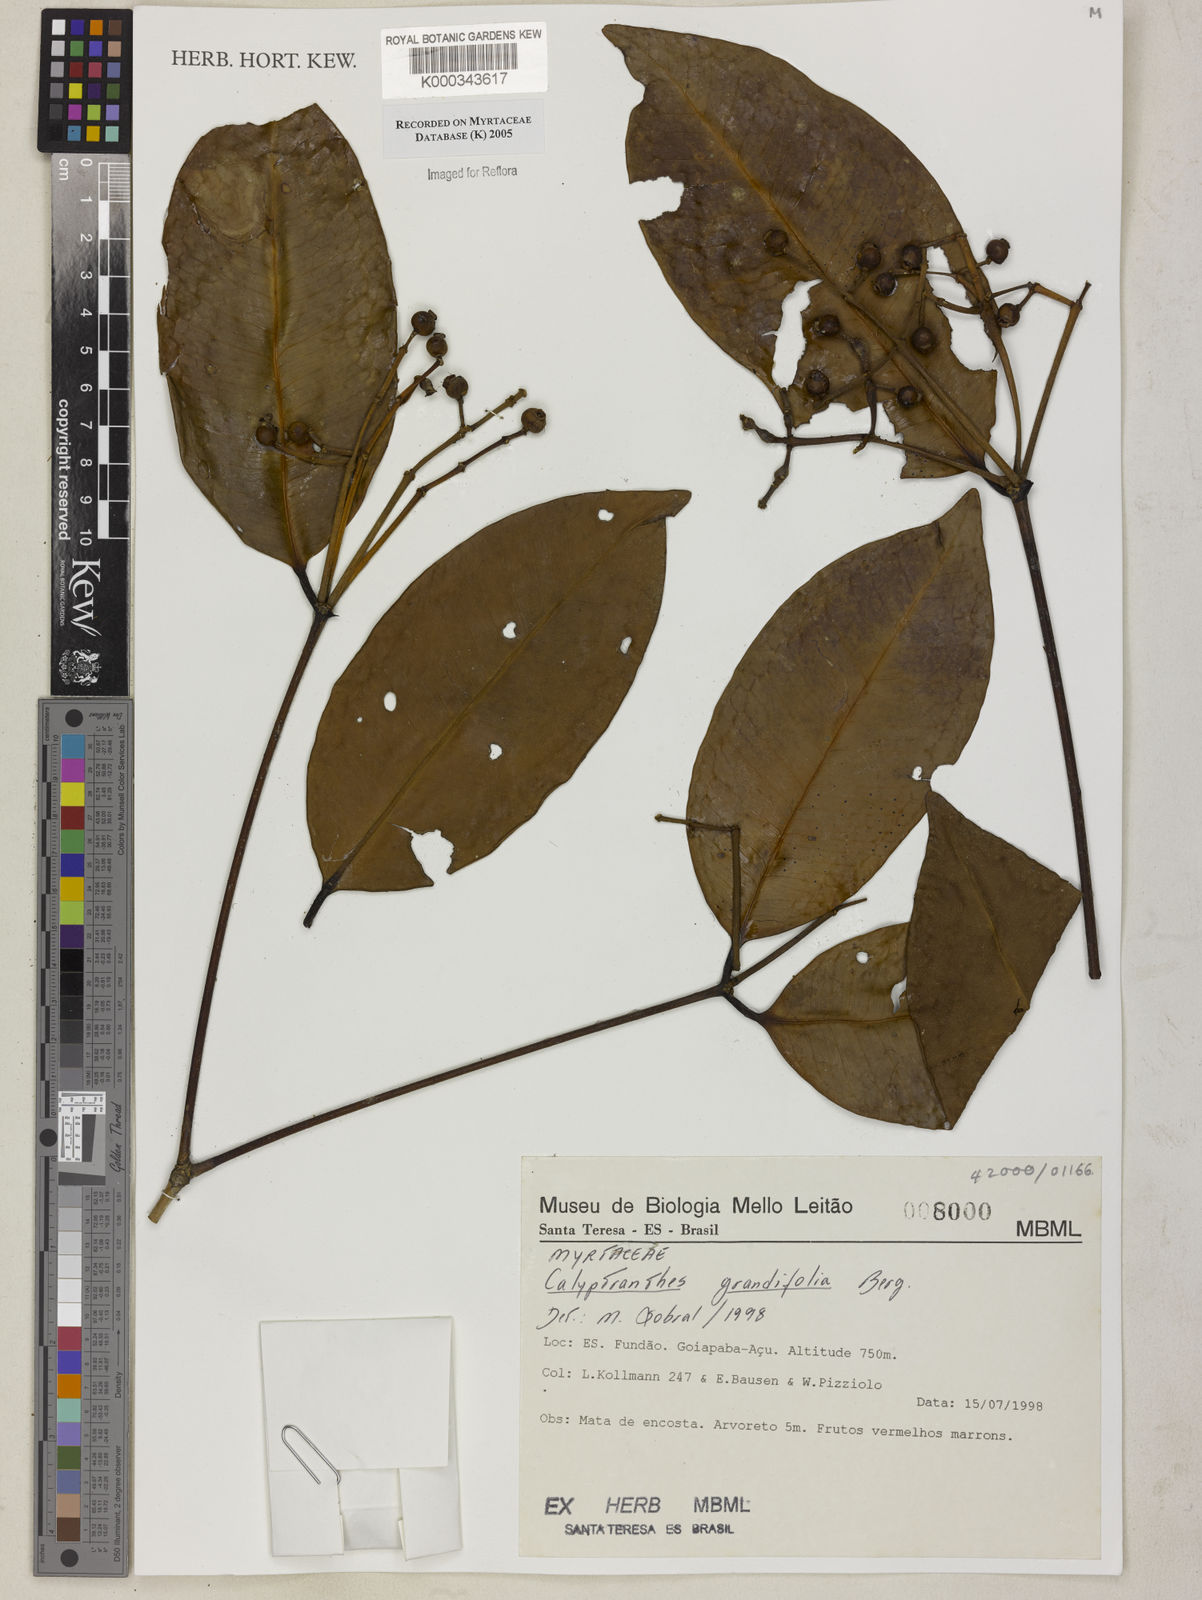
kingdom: Plantae
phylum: Tracheophyta
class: Magnoliopsida
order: Myrtales
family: Myrtaceae
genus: Calyptranthes
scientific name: Calyptranthes grandifolia
